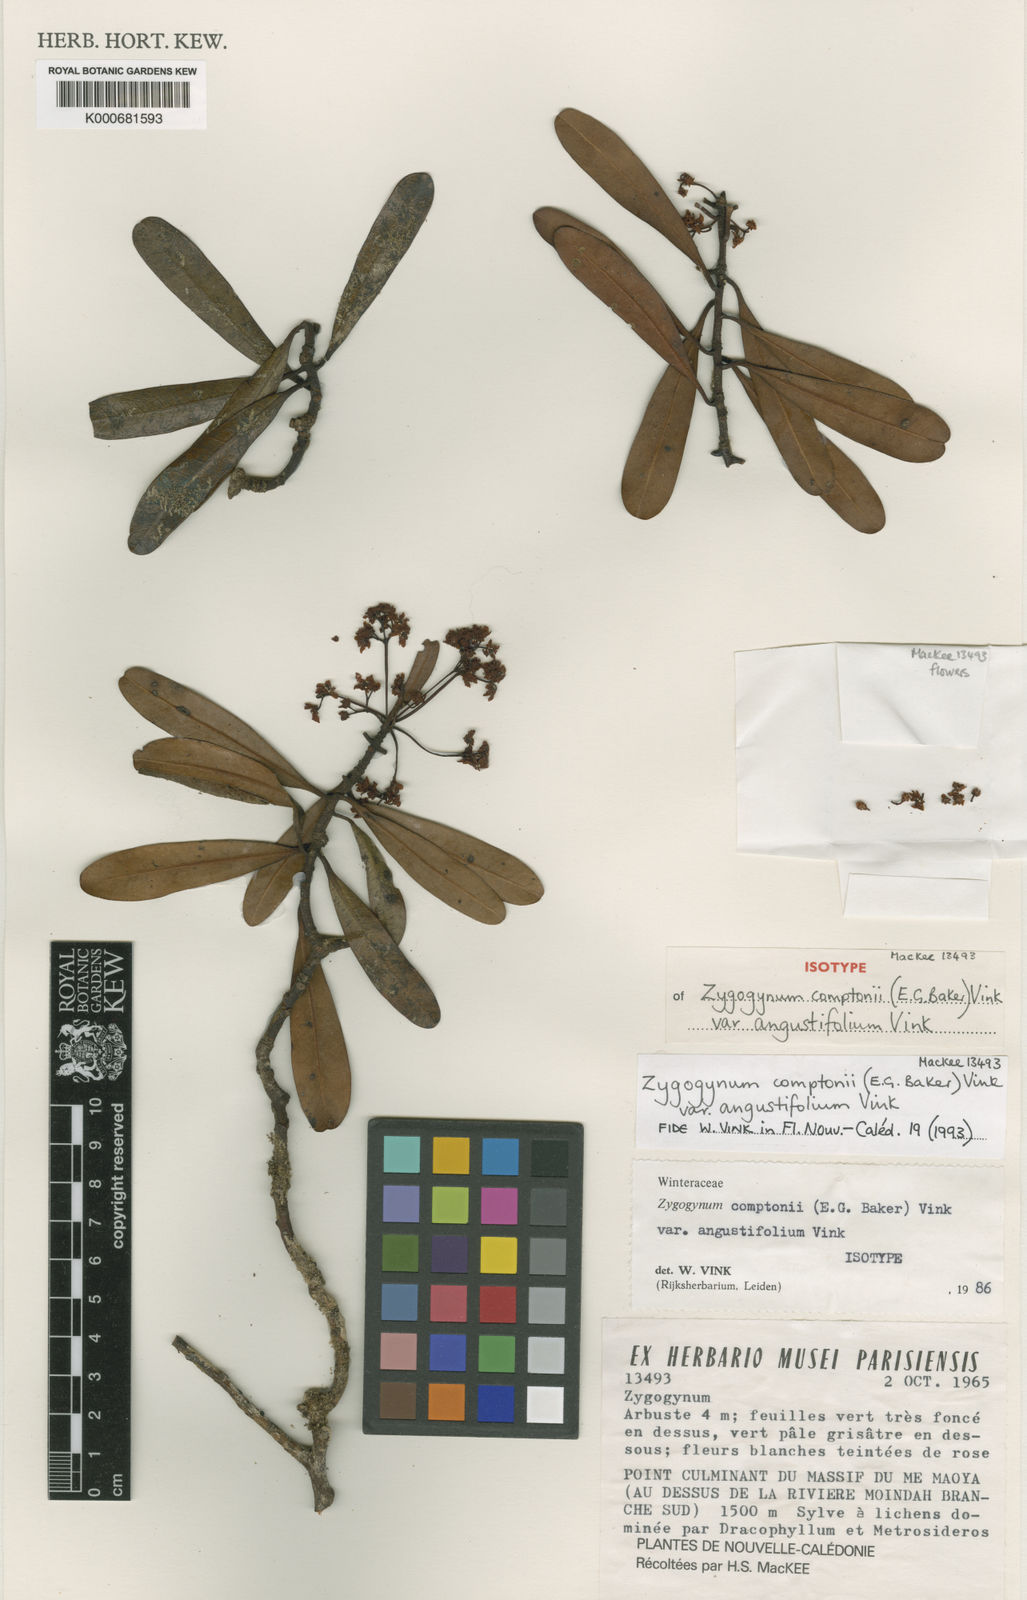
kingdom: Plantae
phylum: Tracheophyta
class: Magnoliopsida
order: Canellales
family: Winteraceae
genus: Zygogynum
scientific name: Zygogynum comptonii
